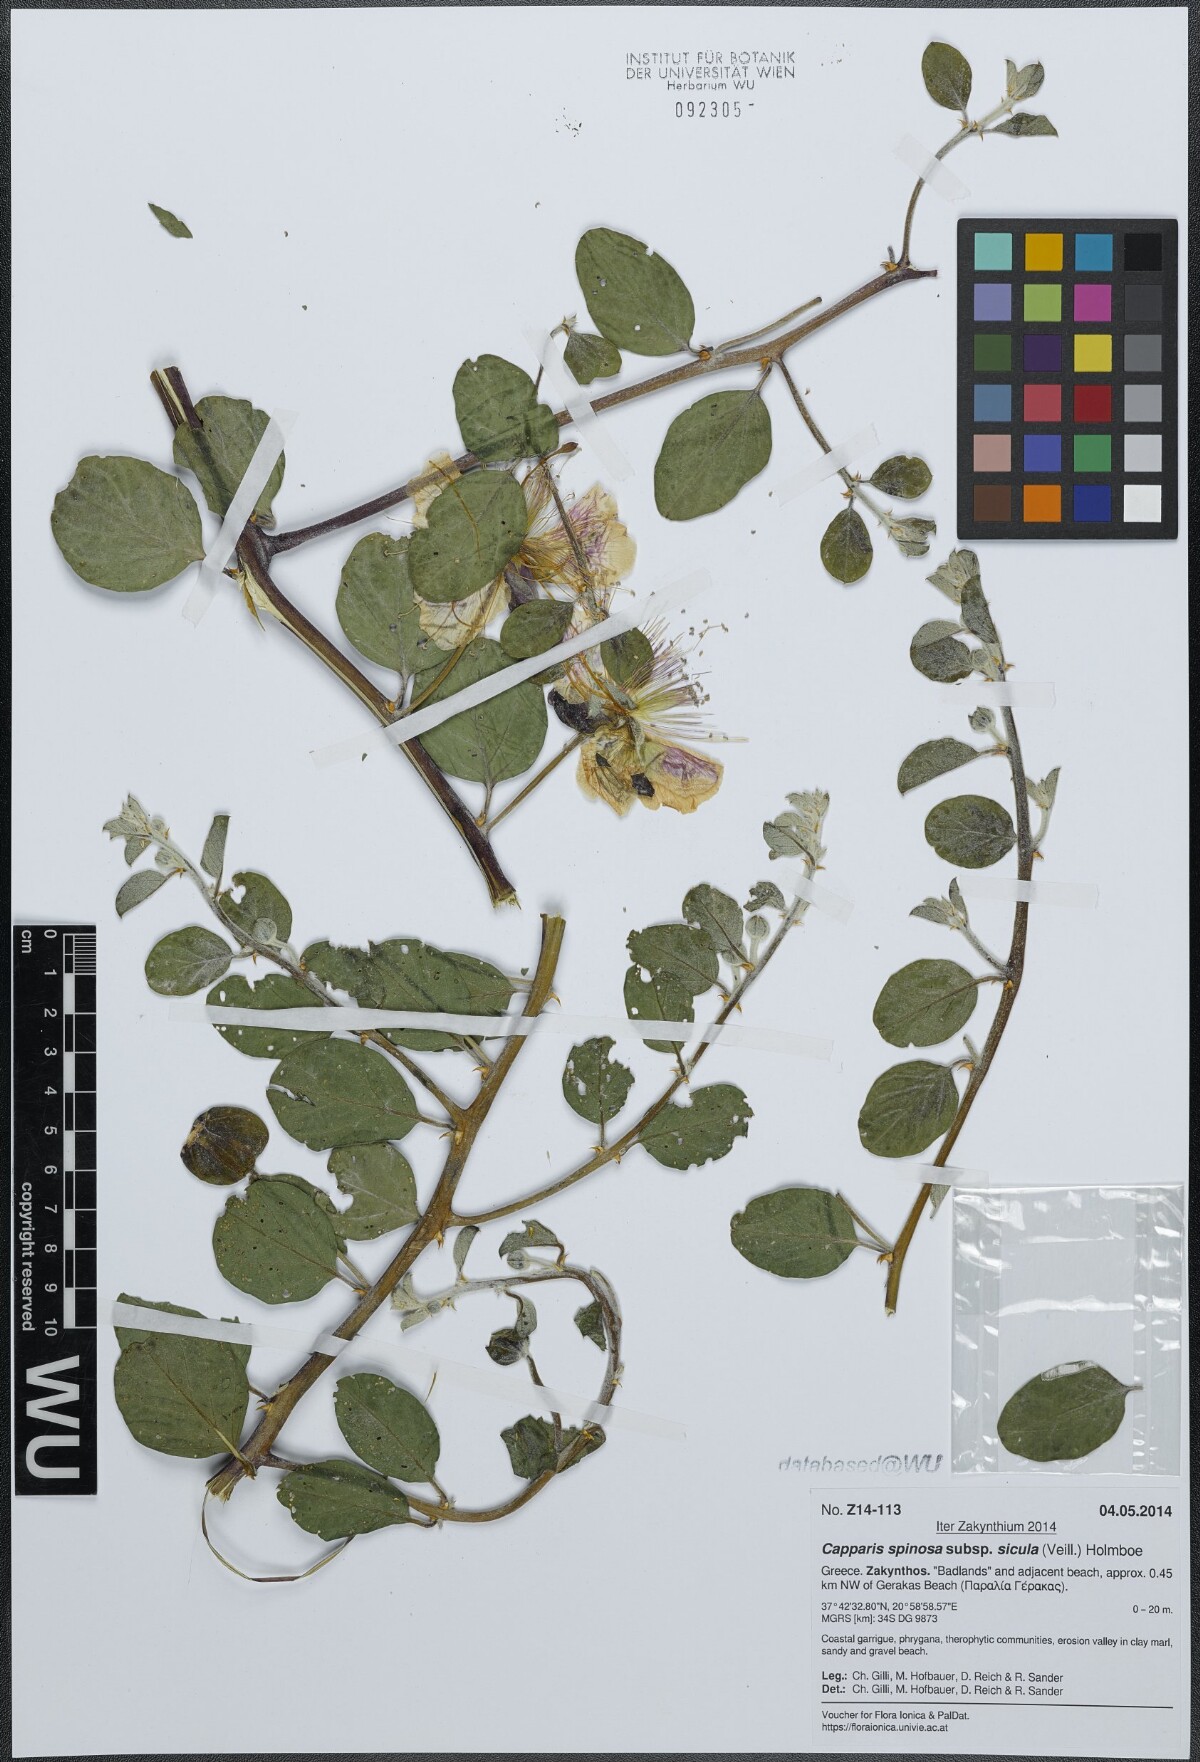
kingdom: Plantae
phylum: Tracheophyta
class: Magnoliopsida
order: Brassicales
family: Capparaceae
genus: Capparis
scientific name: Capparis spinosa
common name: Caper
